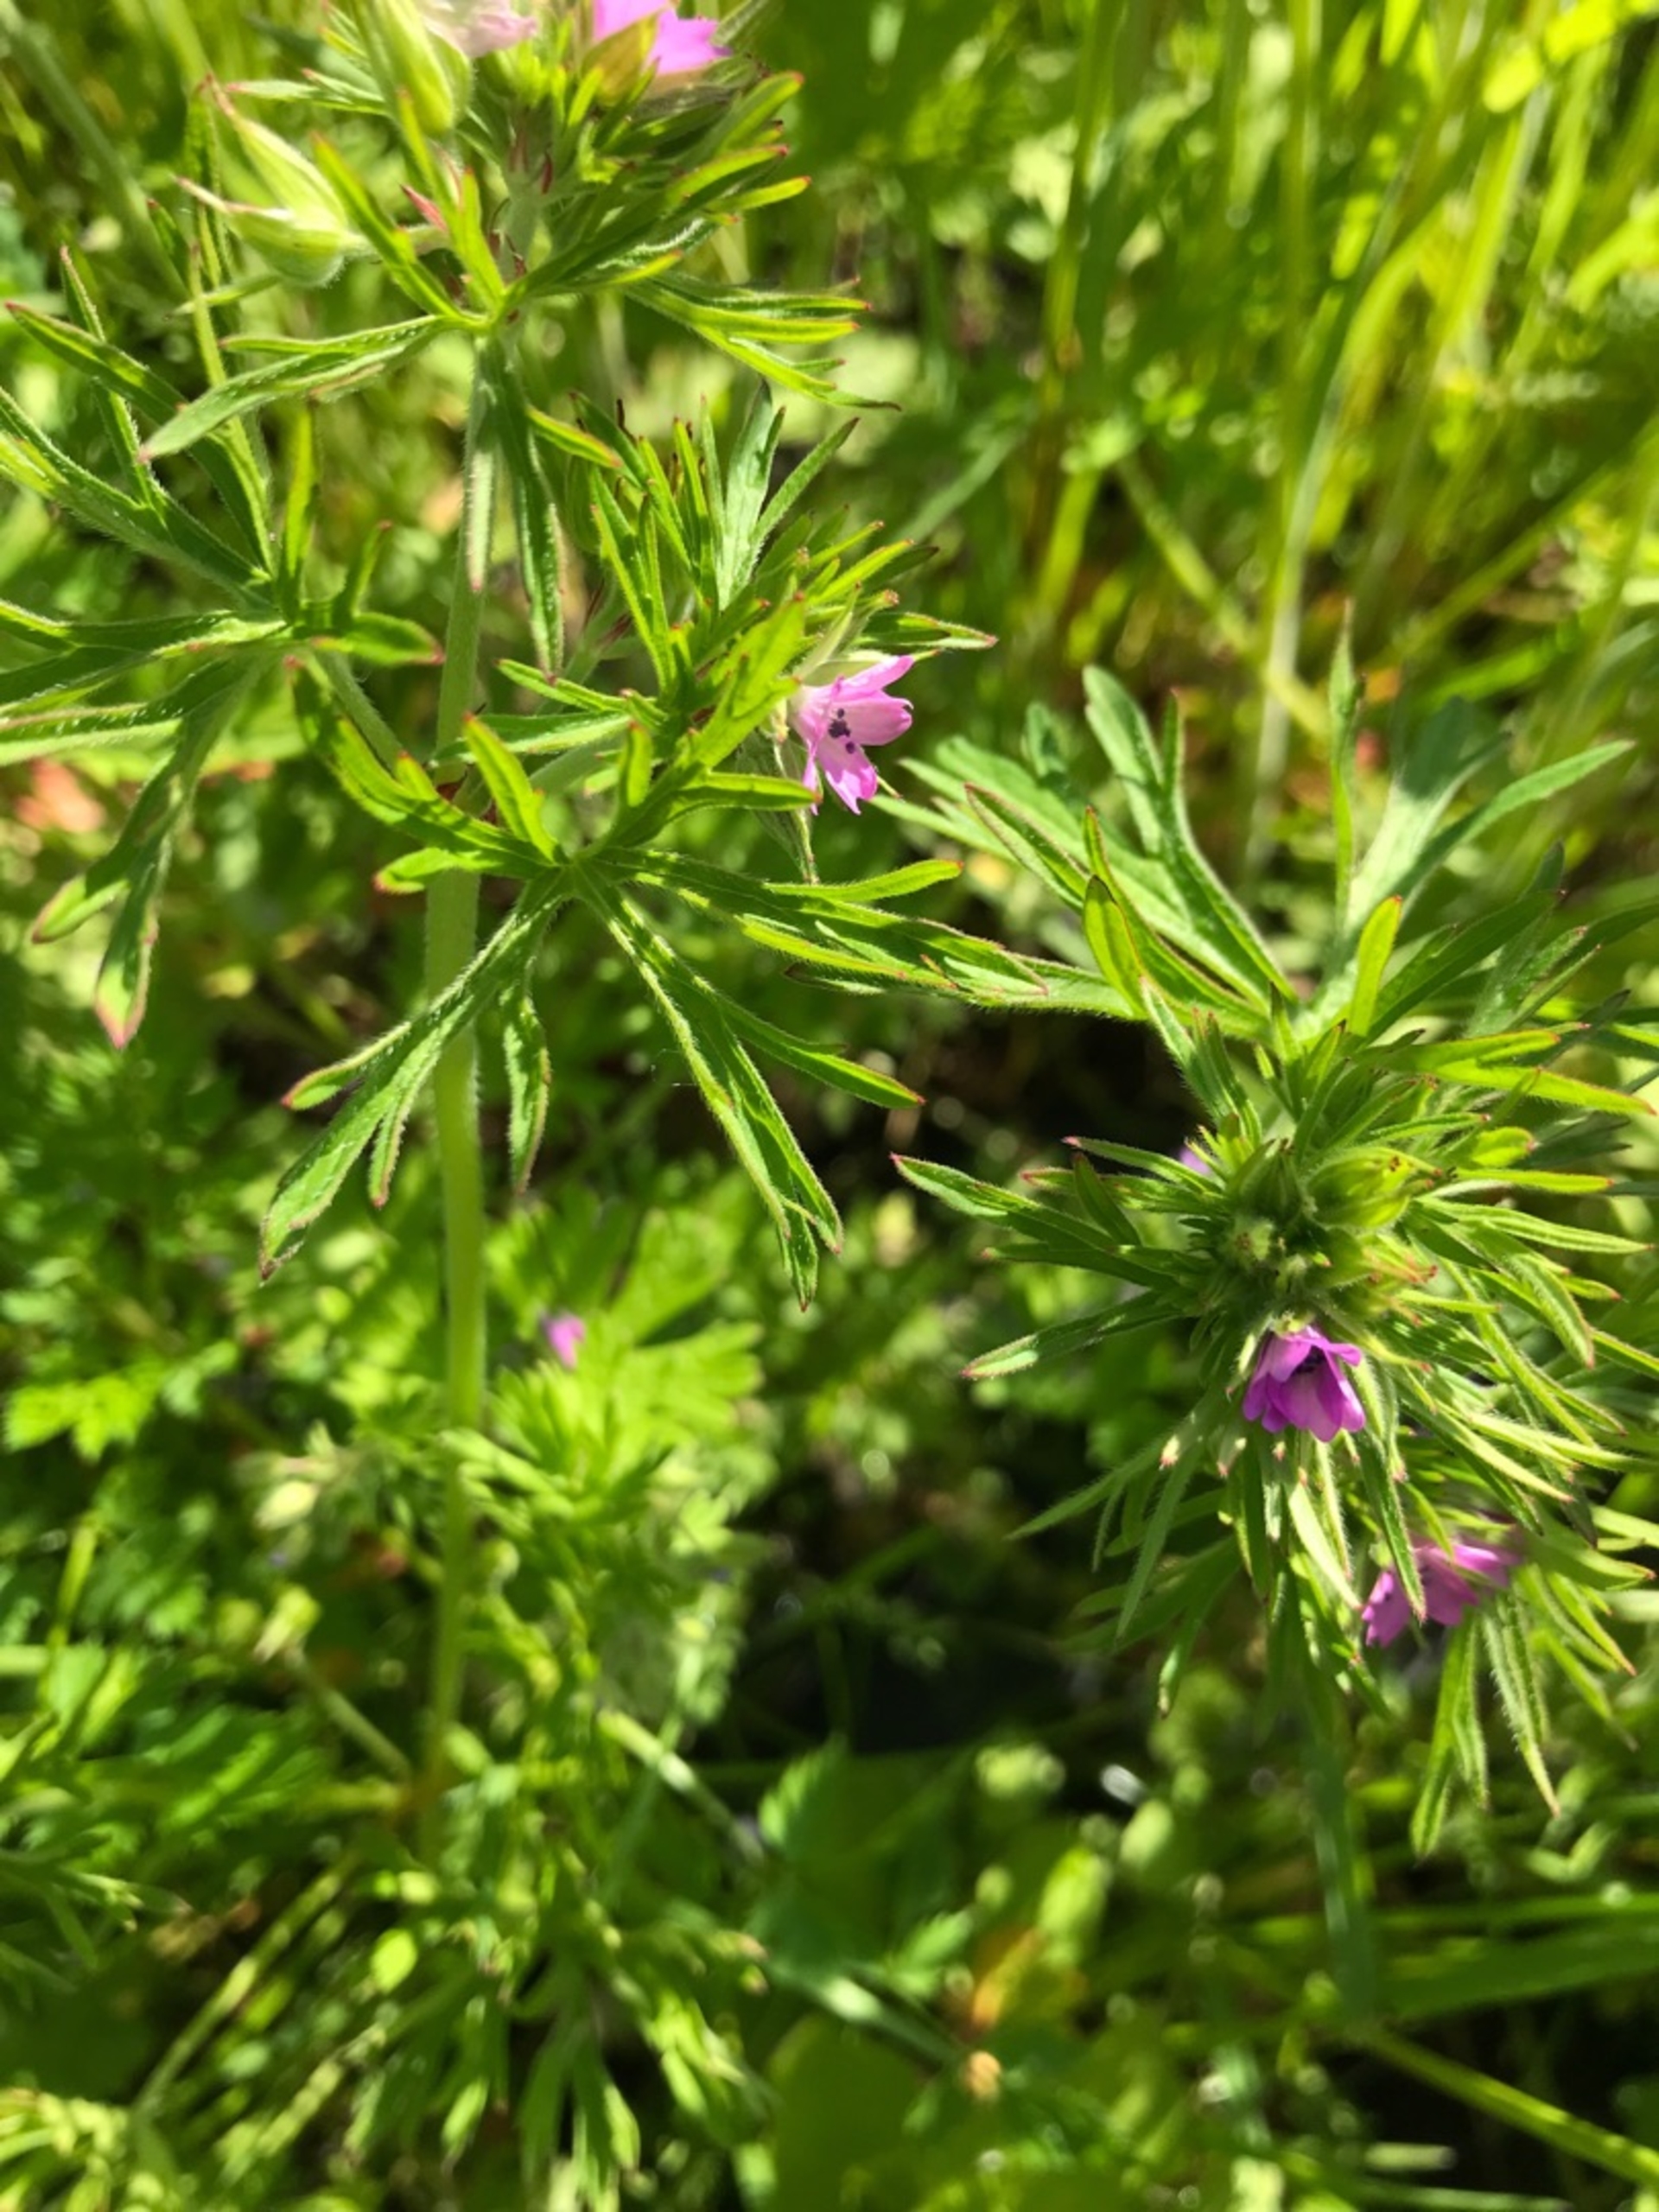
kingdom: Plantae
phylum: Tracheophyta
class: Magnoliopsida
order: Geraniales
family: Geraniaceae
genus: Geranium
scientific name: Geranium dissectum
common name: Kløftet storkenæb
